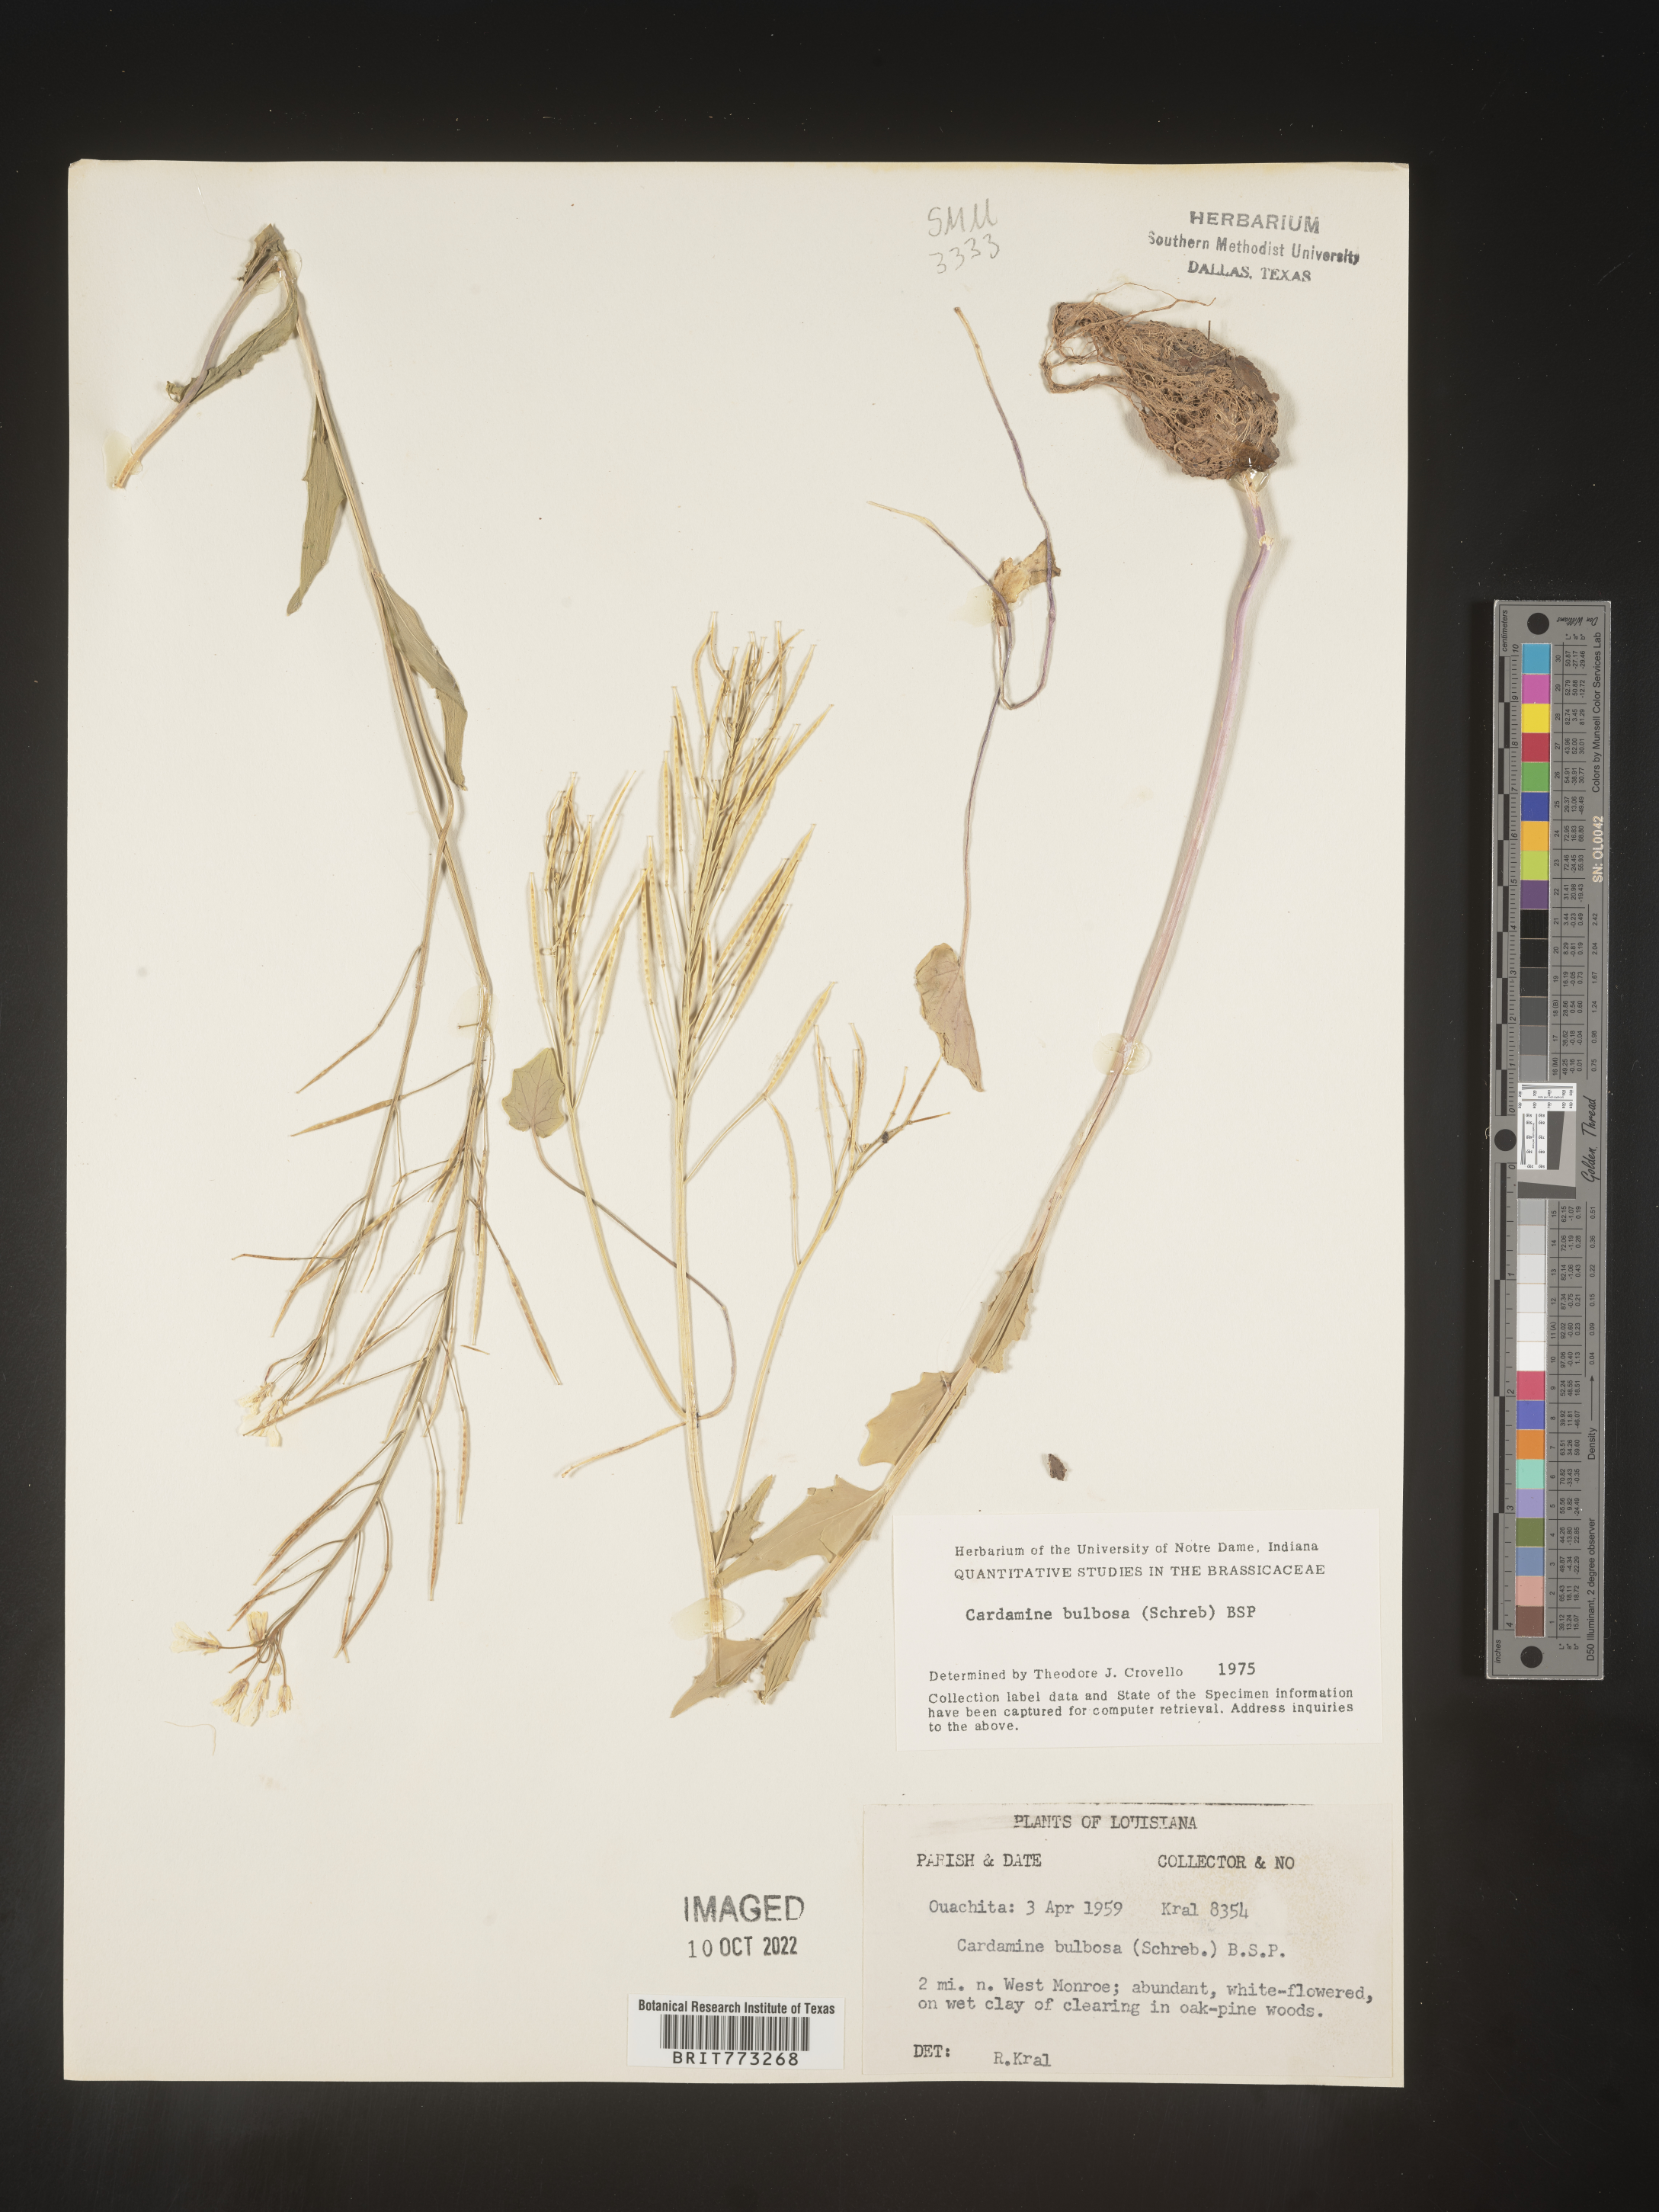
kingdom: Plantae
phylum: Tracheophyta
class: Magnoliopsida
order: Brassicales
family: Brassicaceae
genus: Cardamine
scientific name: Cardamine bulbosa
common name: Spring cress
